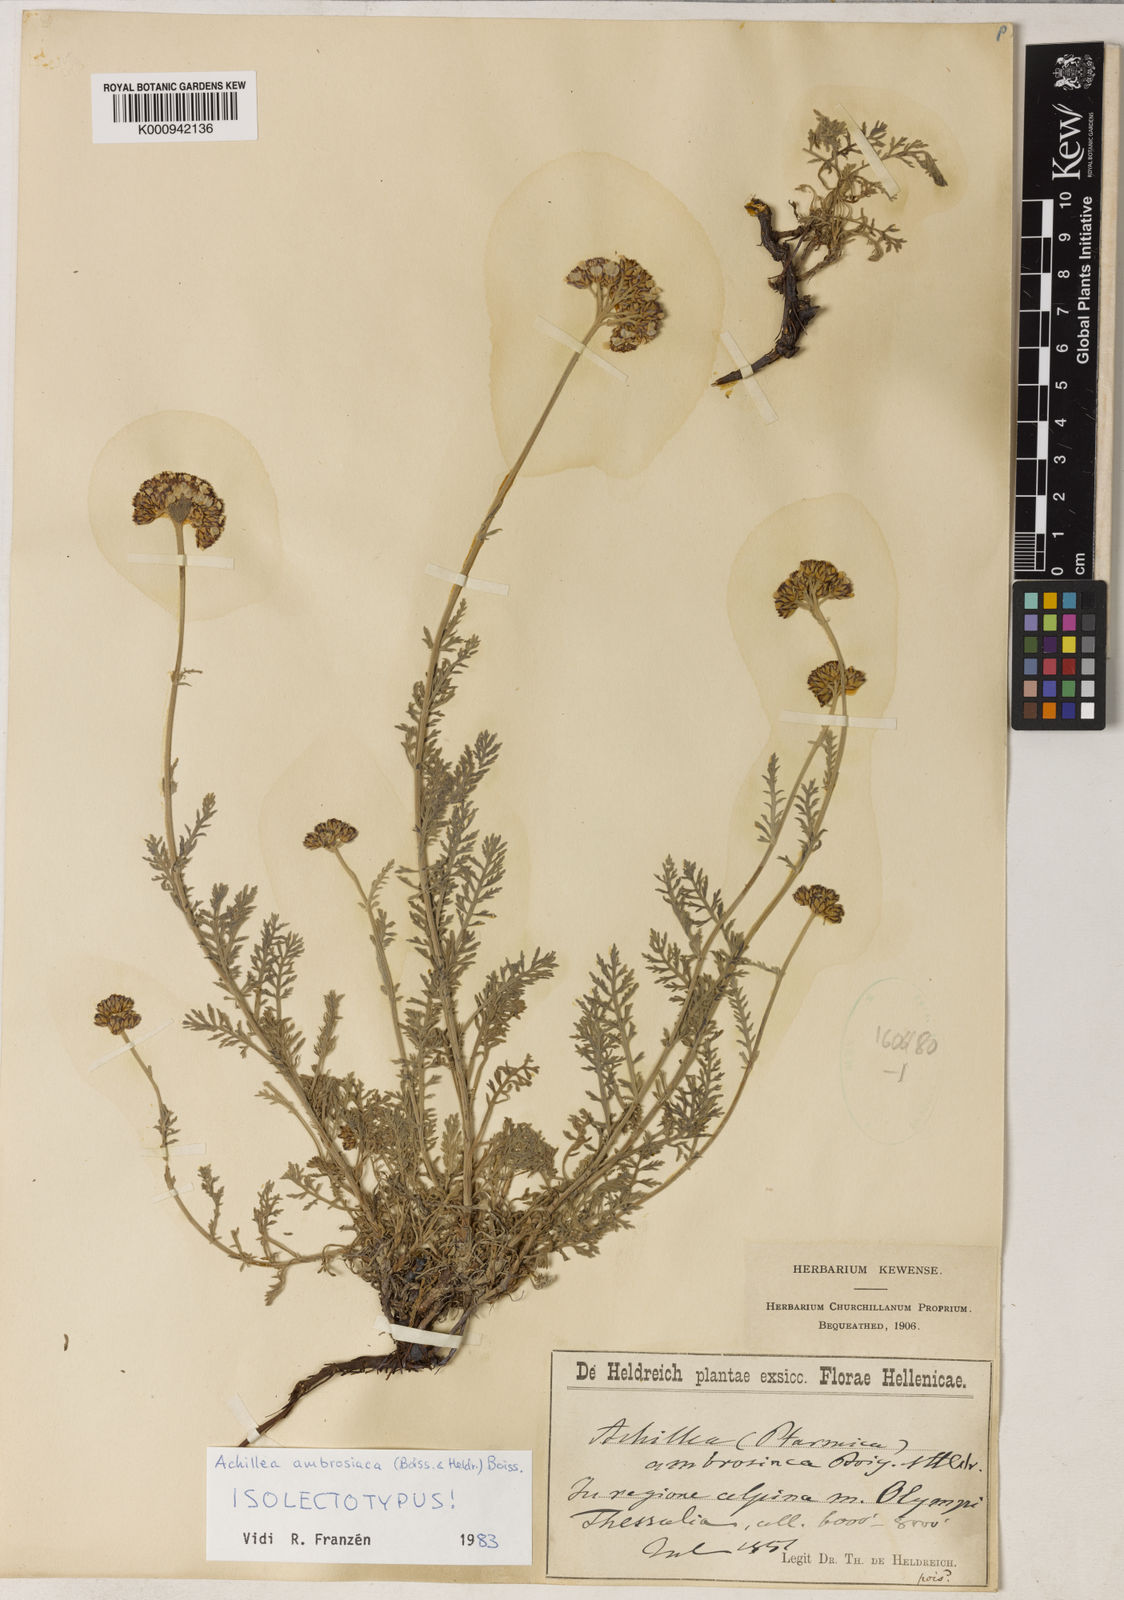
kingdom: Plantae
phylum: Tracheophyta
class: Magnoliopsida
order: Asterales
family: Asteraceae
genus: Achillea
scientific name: Achillea ambrosiaca
